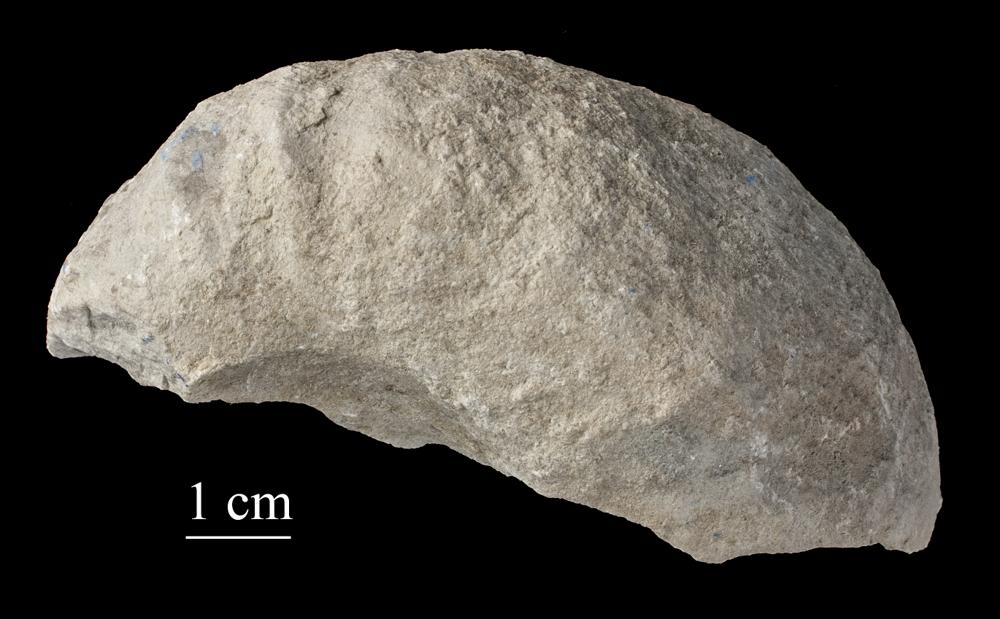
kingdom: Animalia
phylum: Mollusca
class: Gastropoda
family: Holopeidae
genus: Holopea
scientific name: Holopea ampullacea
